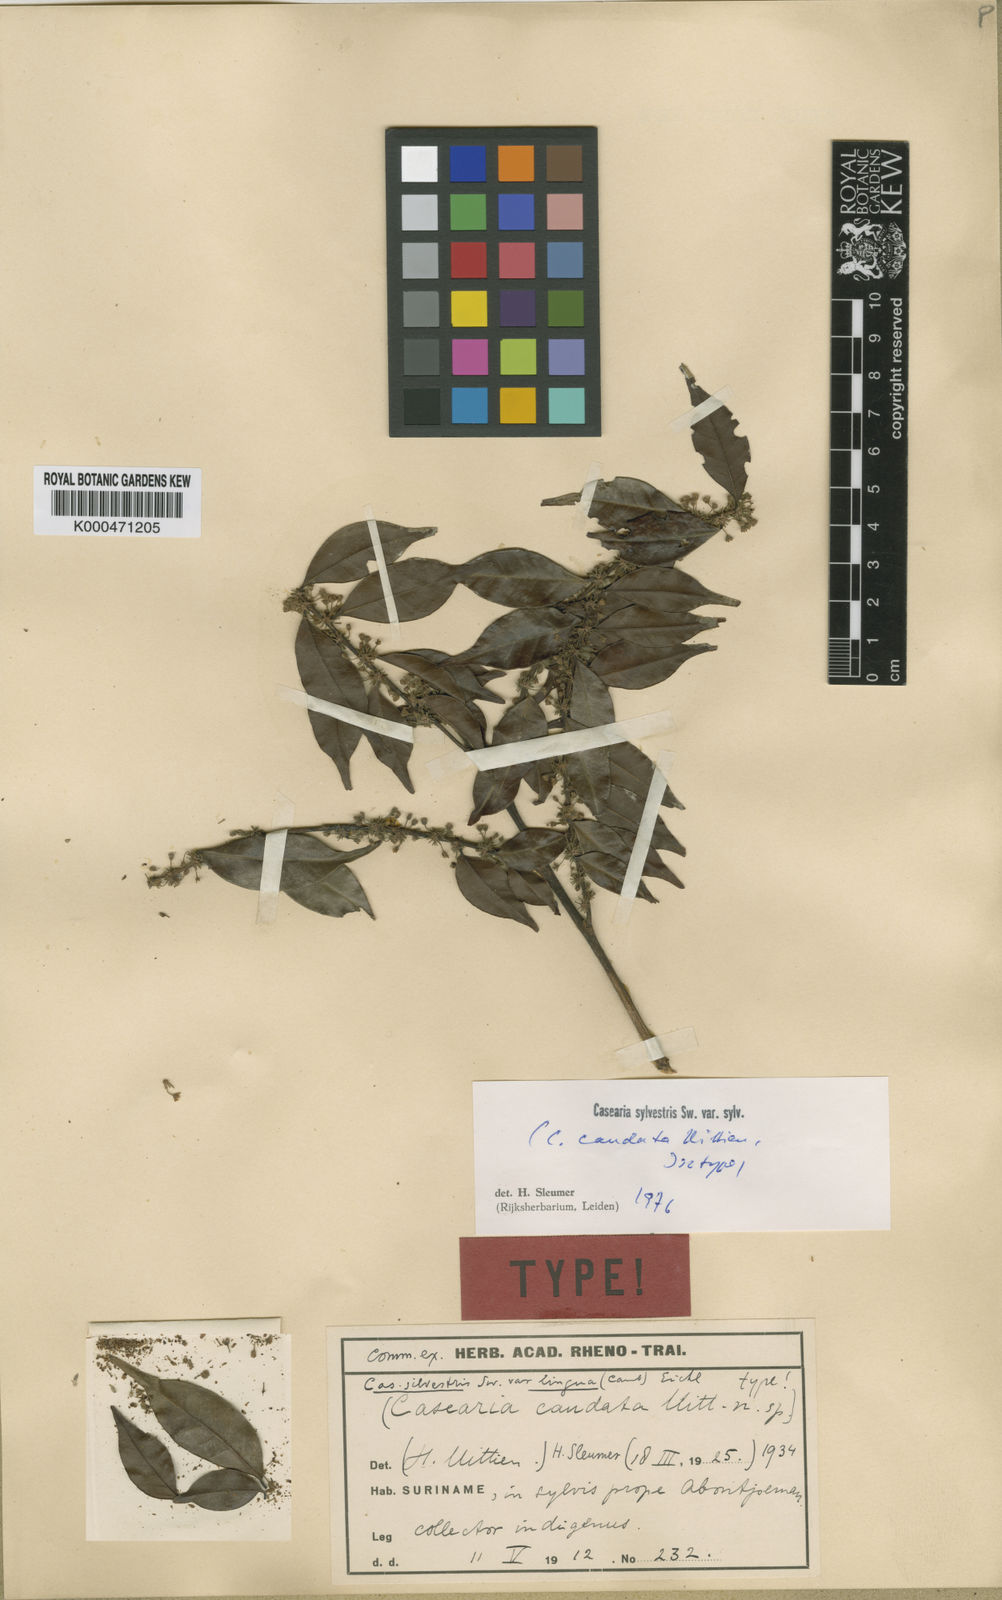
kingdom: Plantae
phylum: Tracheophyta
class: Magnoliopsida
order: Malpighiales
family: Salicaceae
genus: Casearia
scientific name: Casearia sylvestris
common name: Wild sage
